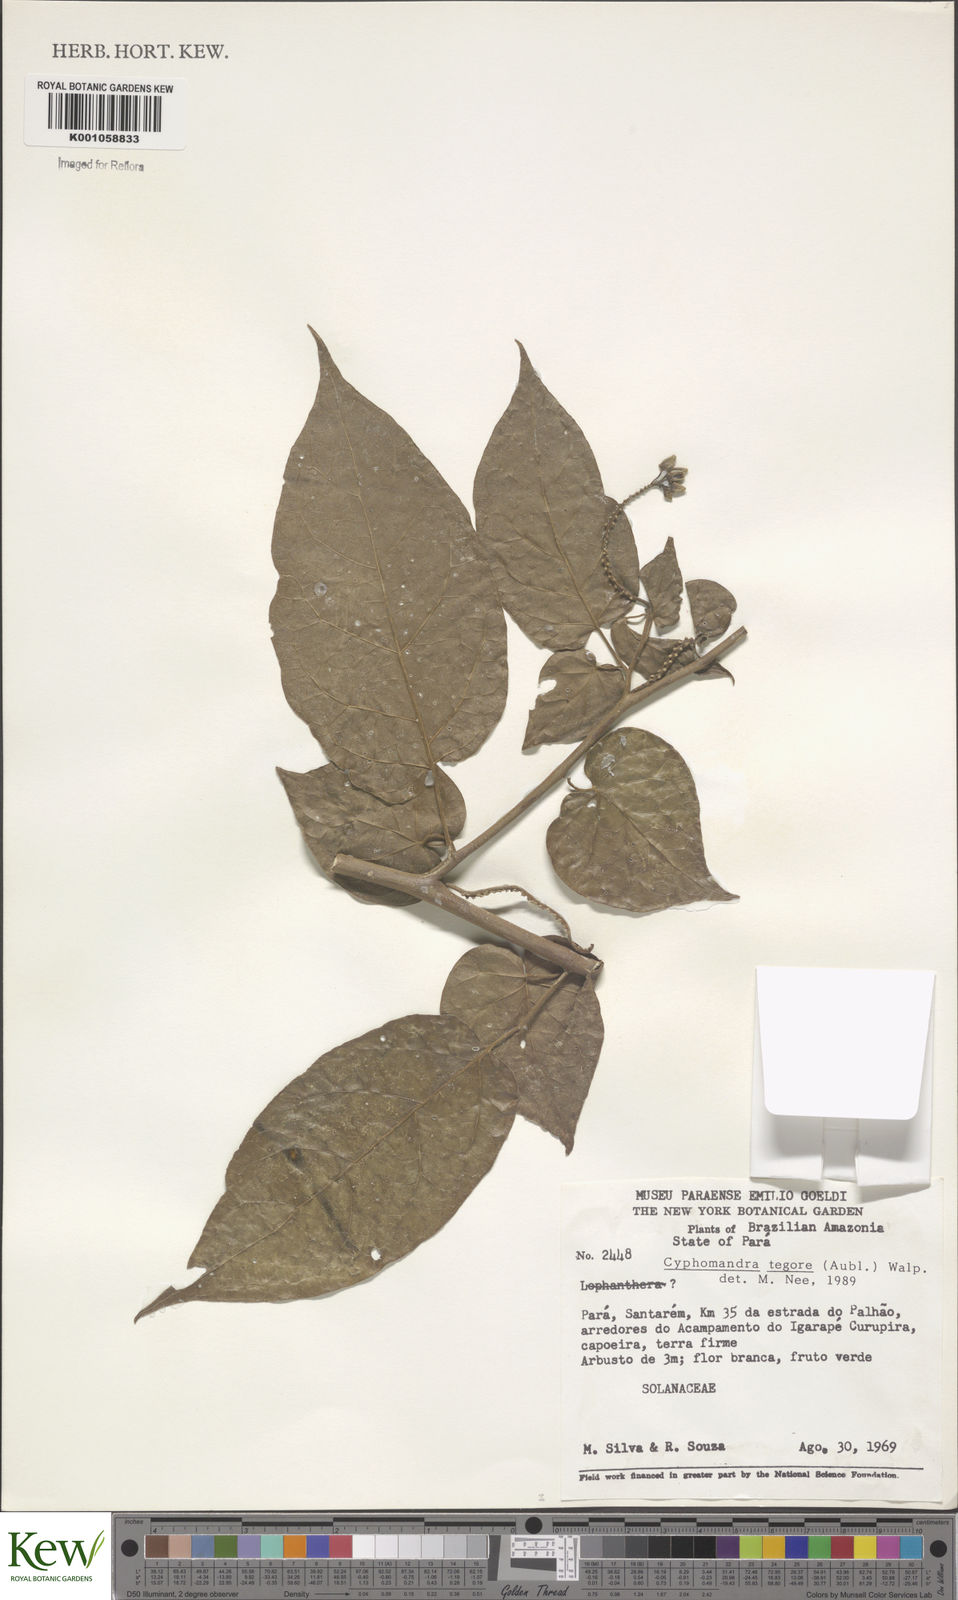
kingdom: Plantae
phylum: Tracheophyta
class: Magnoliopsida
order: Solanales
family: Solanaceae
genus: Solanum
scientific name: Solanum tegore
